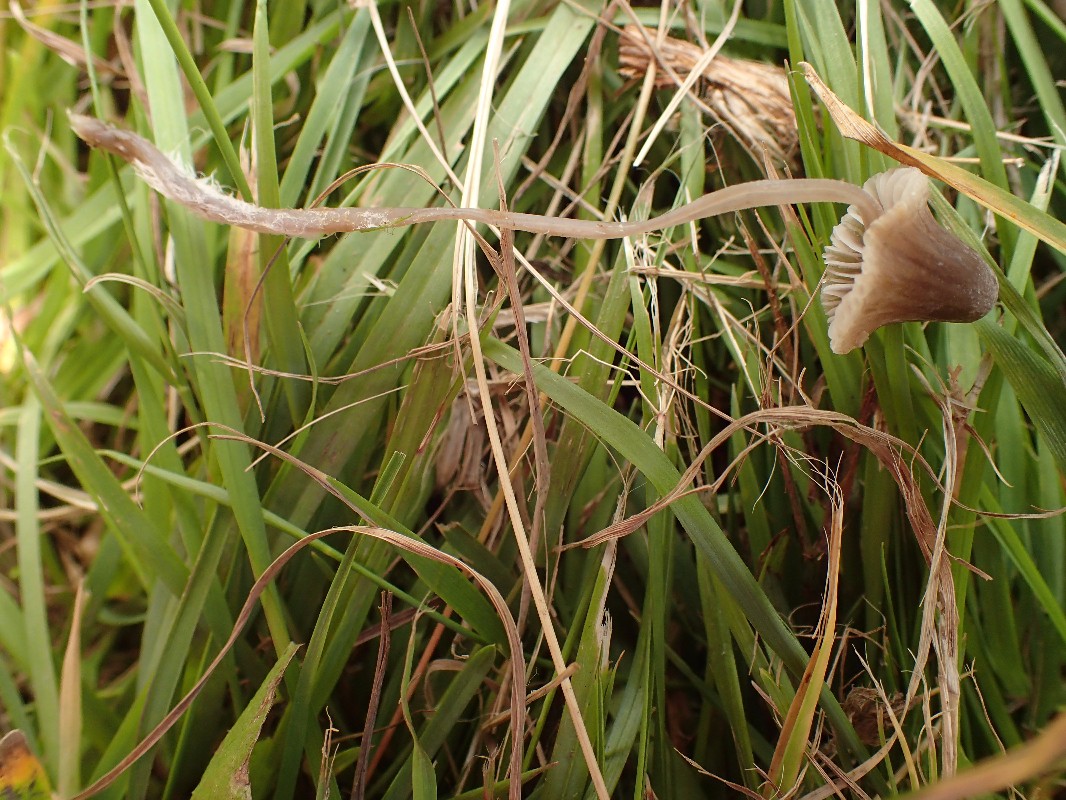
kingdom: Fungi
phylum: Basidiomycota
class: Agaricomycetes
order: Agaricales
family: Mycenaceae
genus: Mycena
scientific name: Mycena
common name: huesvamp
